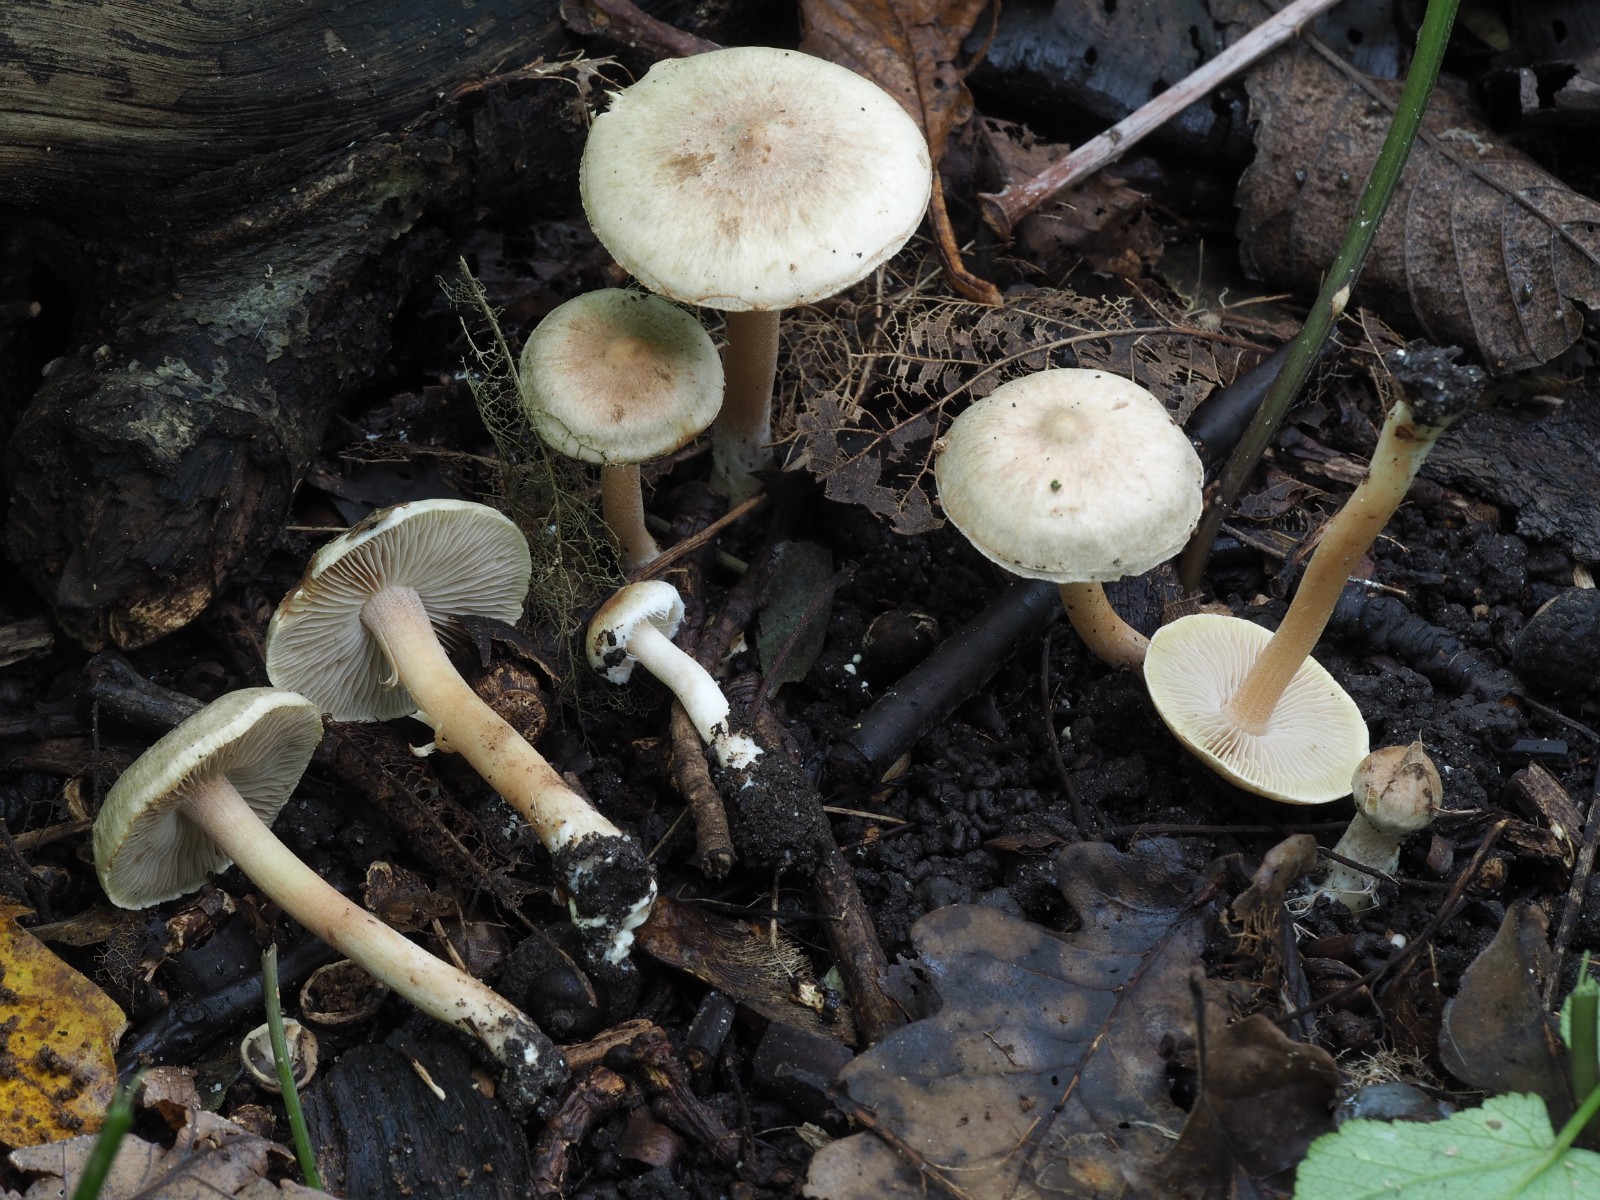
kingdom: Fungi
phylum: Basidiomycota
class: Agaricomycetes
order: Agaricales
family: Inocybaceae
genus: Inocybe
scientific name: Inocybe sindonia
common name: bleg trævlhat
